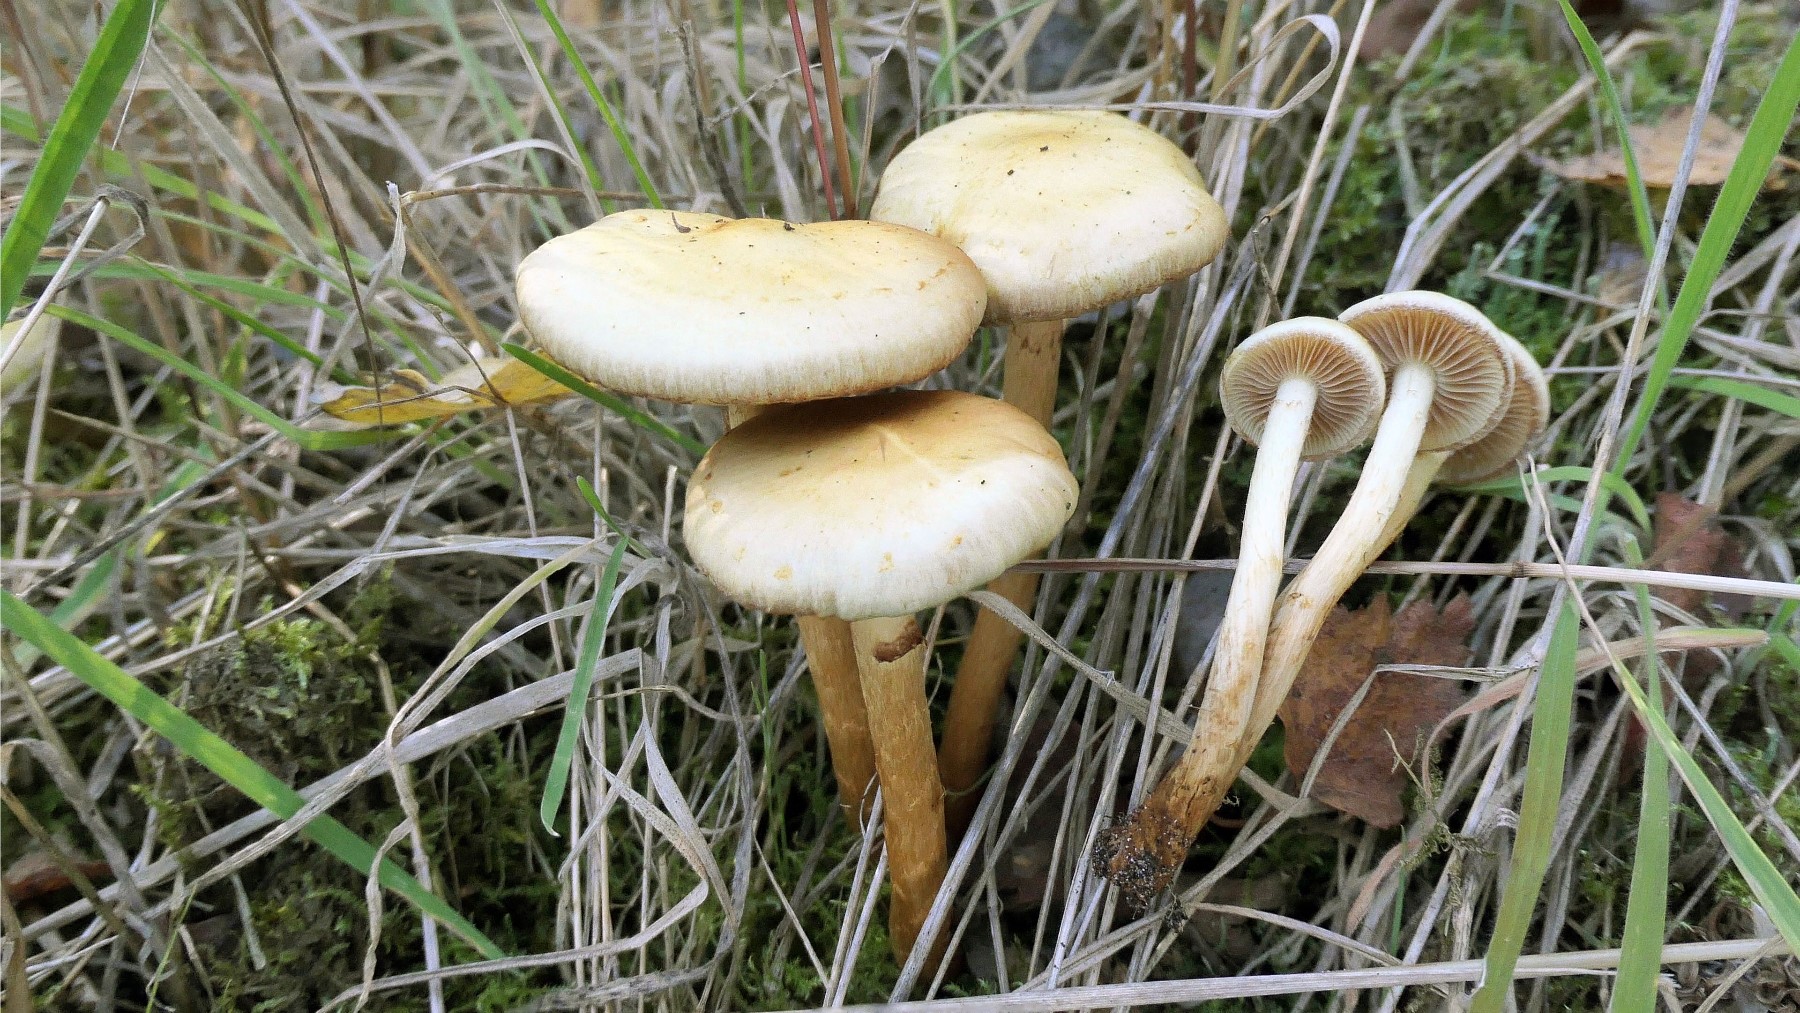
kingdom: Fungi
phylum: Basidiomycota
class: Agaricomycetes
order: Agaricales
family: Hymenogastraceae
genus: Flammula
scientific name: Flammula alnicola
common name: elle-skælhat
